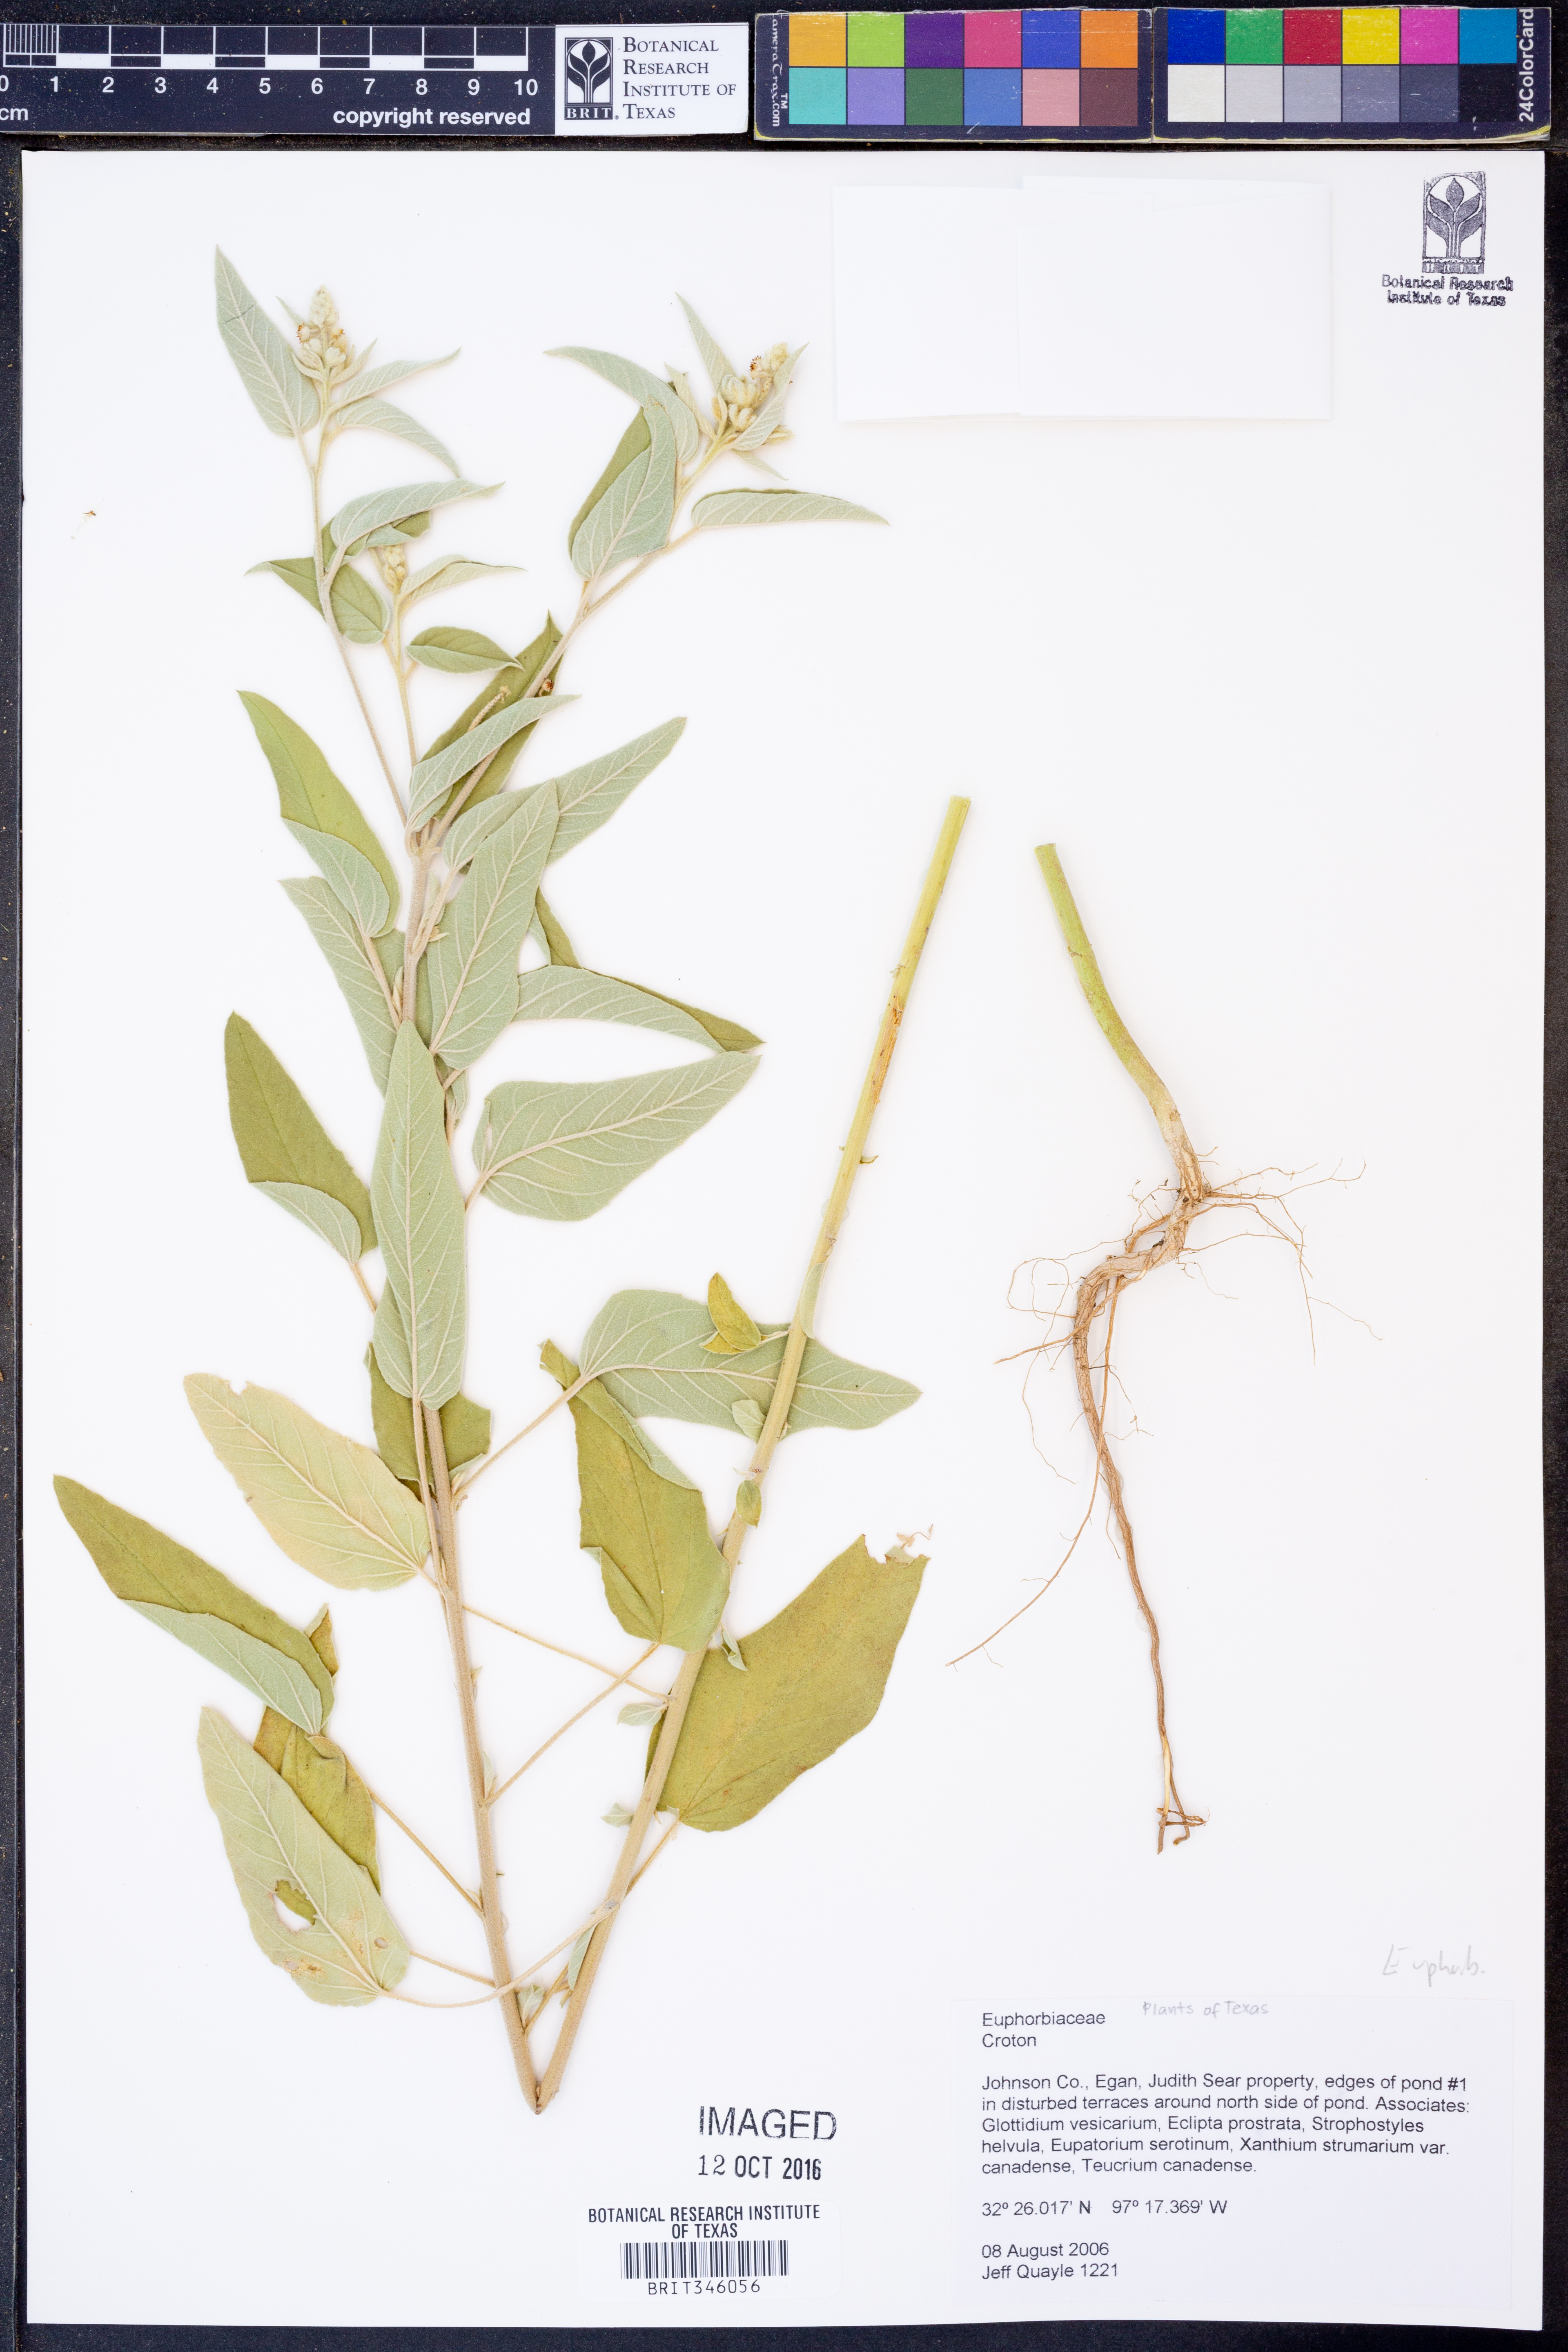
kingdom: Plantae
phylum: Tracheophyta
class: Magnoliopsida
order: Malpighiales
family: Euphorbiaceae
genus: Croton
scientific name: Croton
